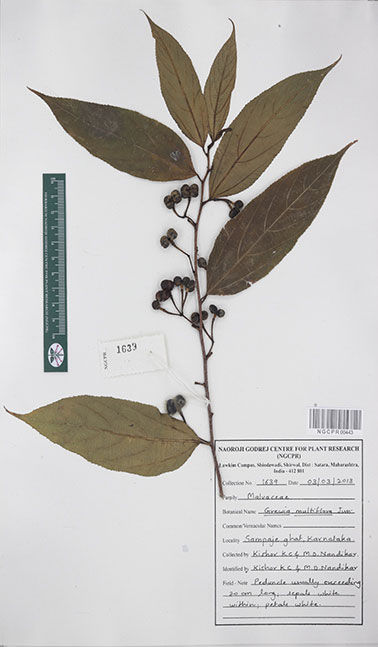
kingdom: Plantae
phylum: Tracheophyta
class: Magnoliopsida
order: Malvales
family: Malvaceae
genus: Grewia
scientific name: Grewia multiflora
